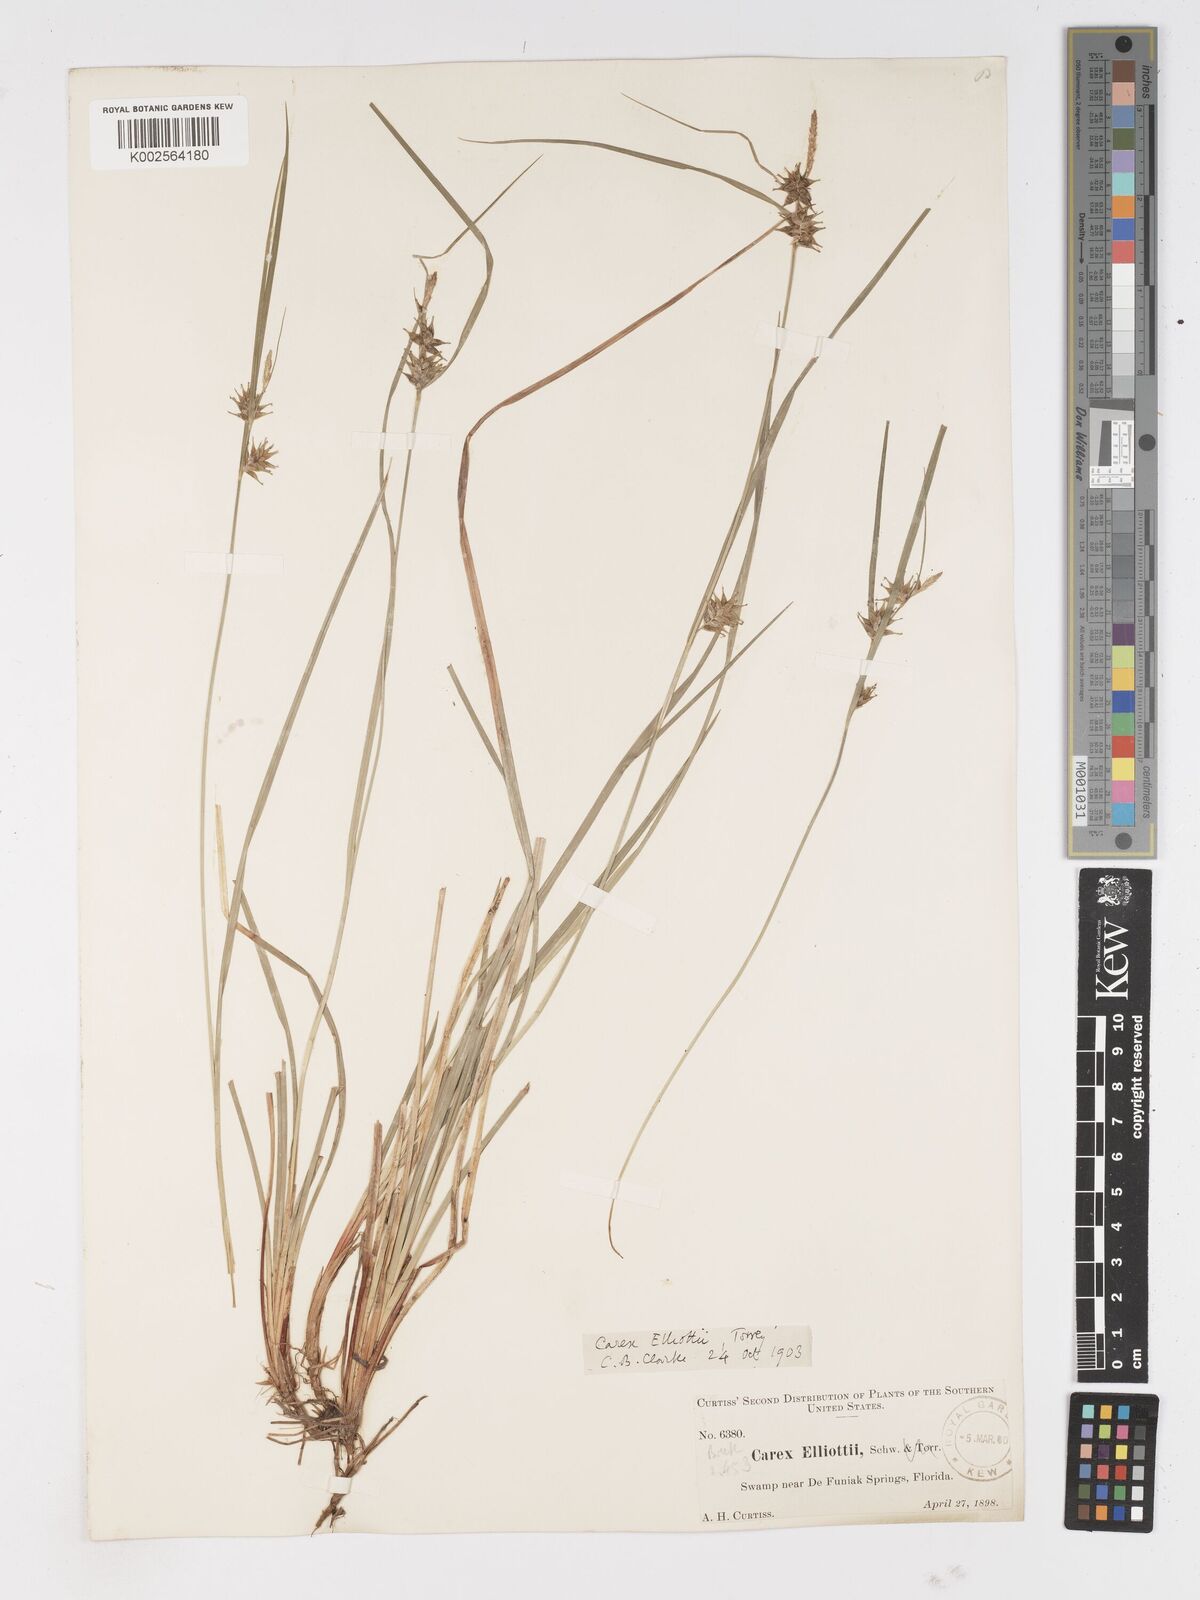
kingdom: Plantae
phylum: Tracheophyta
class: Liliopsida
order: Poales
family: Cyperaceae
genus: Carex
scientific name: Carex elliottii
